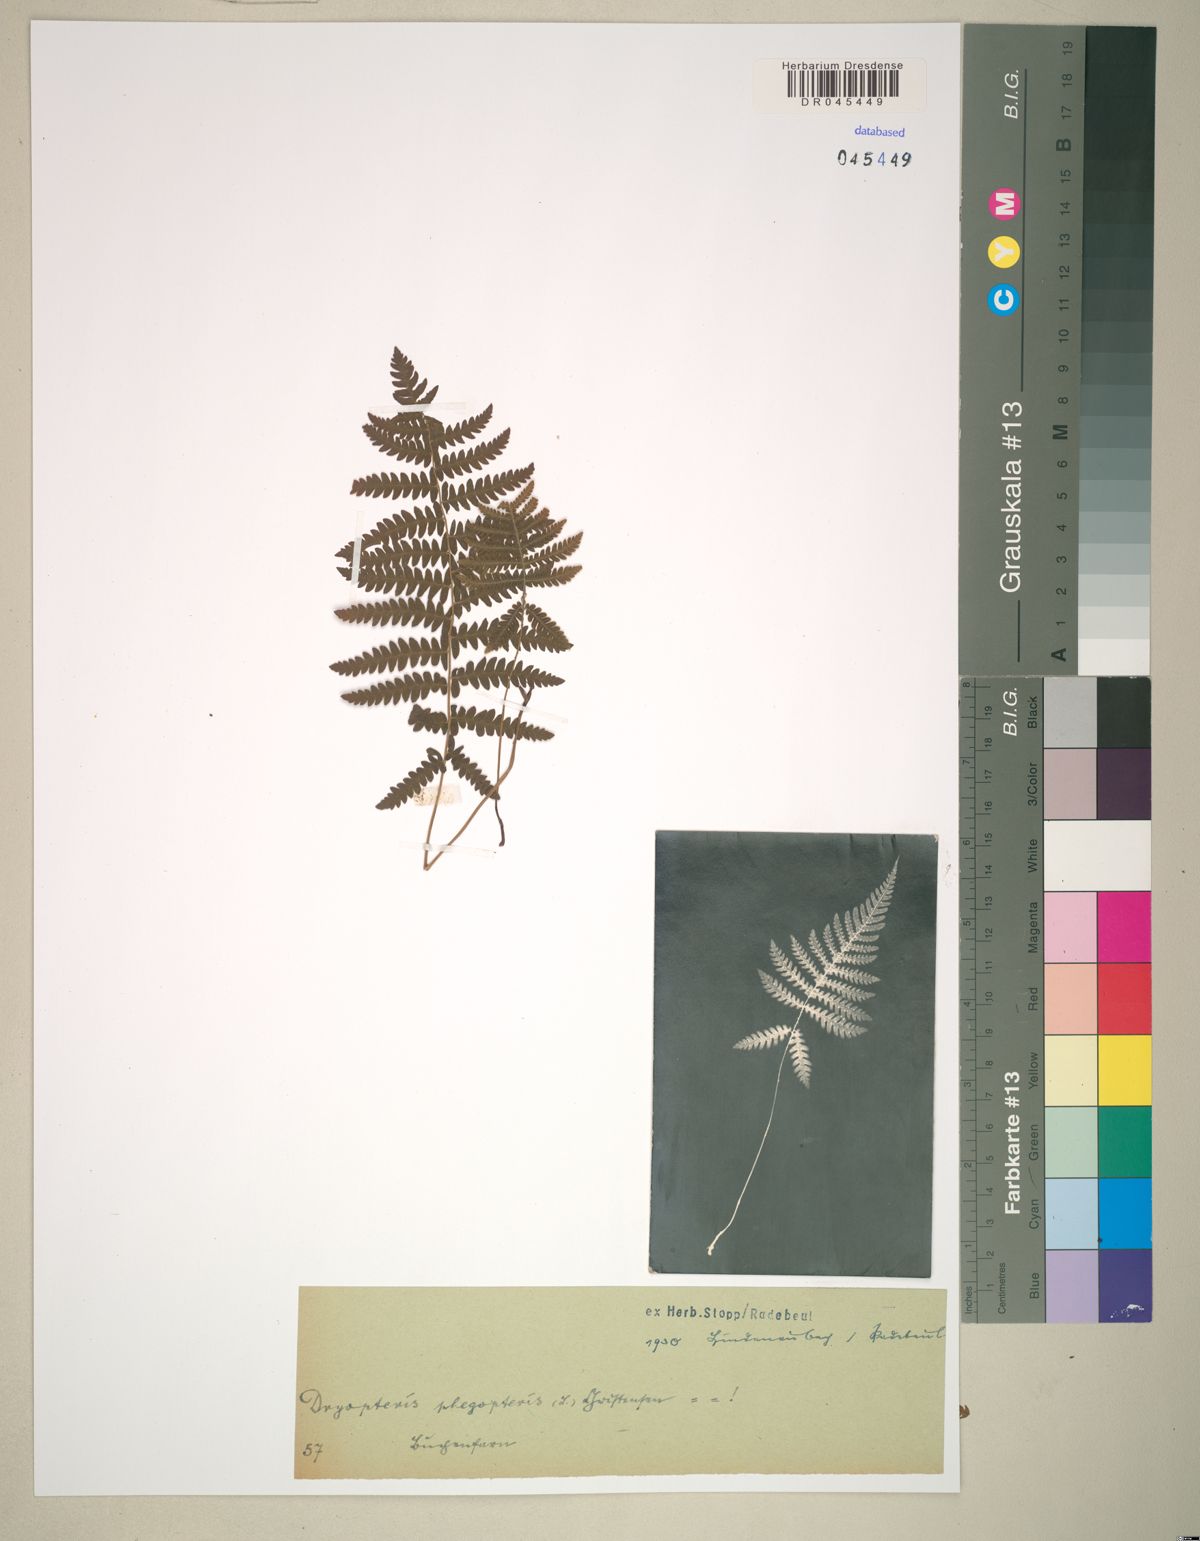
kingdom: Plantae
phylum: Tracheophyta
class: Polypodiopsida
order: Polypodiales
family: Thelypteridaceae
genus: Phegopteris
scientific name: Phegopteris connectilis
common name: Beech fern
